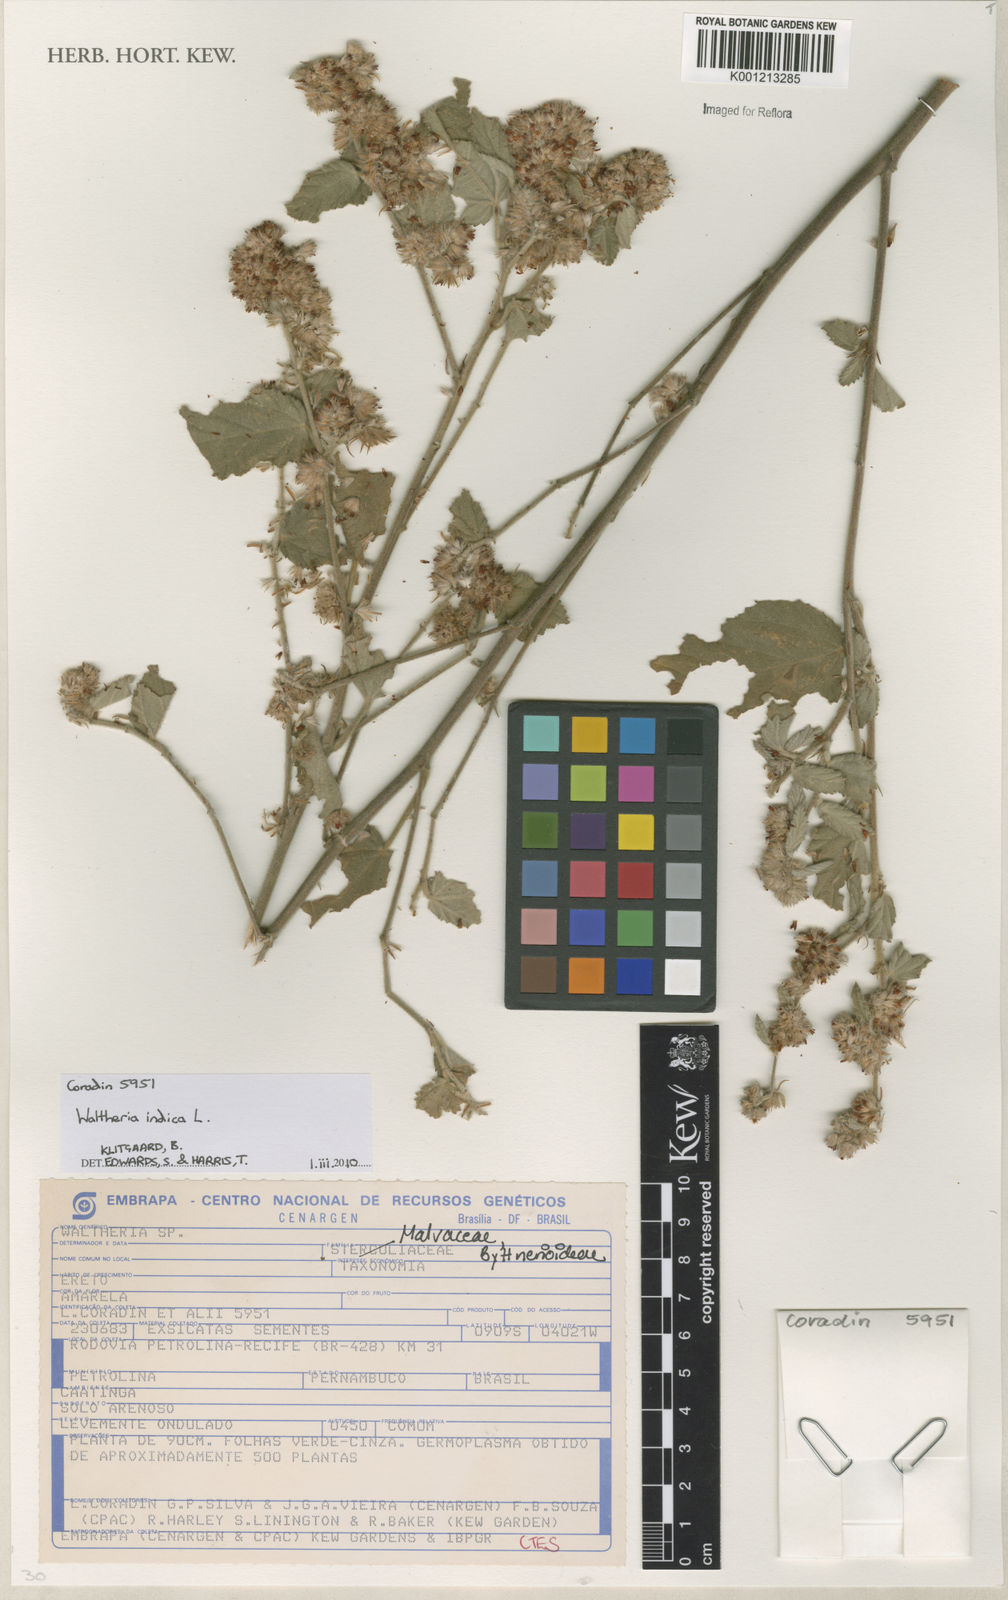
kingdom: Plantae
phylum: Tracheophyta
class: Magnoliopsida
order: Malvales
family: Malvaceae
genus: Waltheria
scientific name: Waltheria indica
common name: Leather-coat
